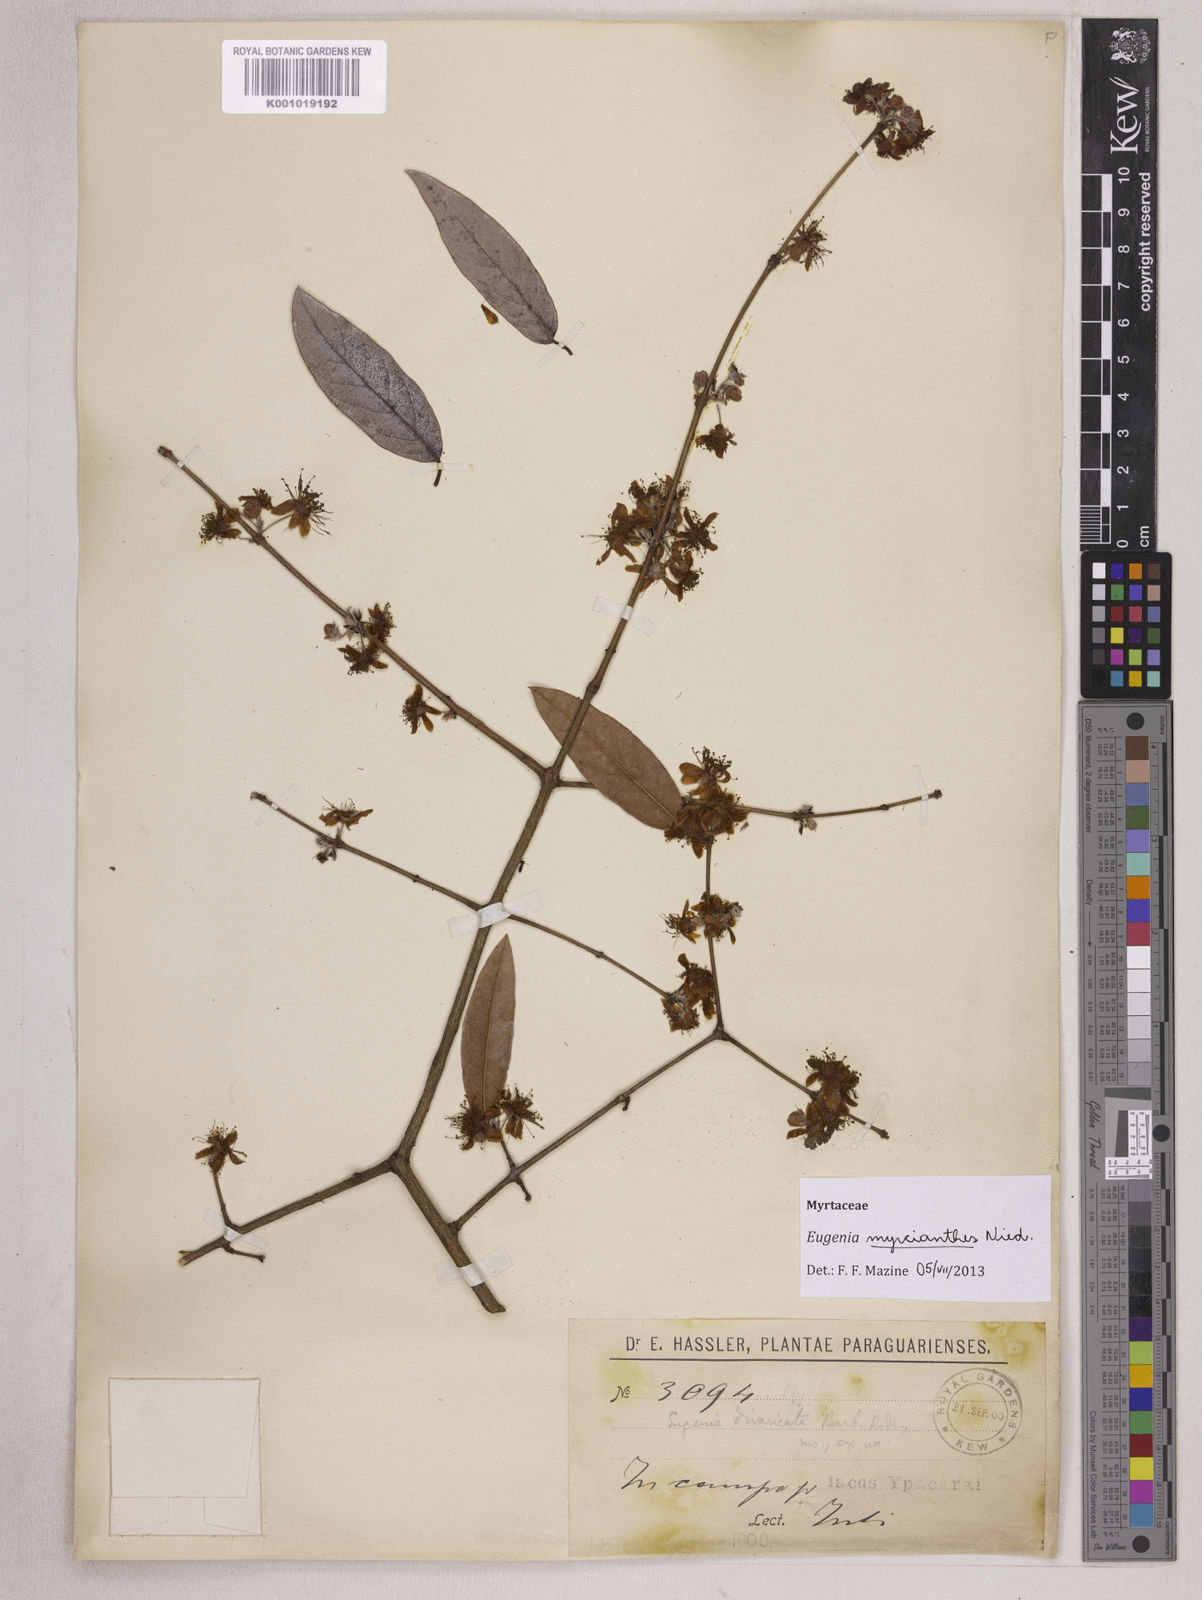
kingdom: Plantae
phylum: Tracheophyta
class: Magnoliopsida
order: Myrtales
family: Myrtaceae
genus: Eugenia
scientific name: Eugenia myrcianthes
